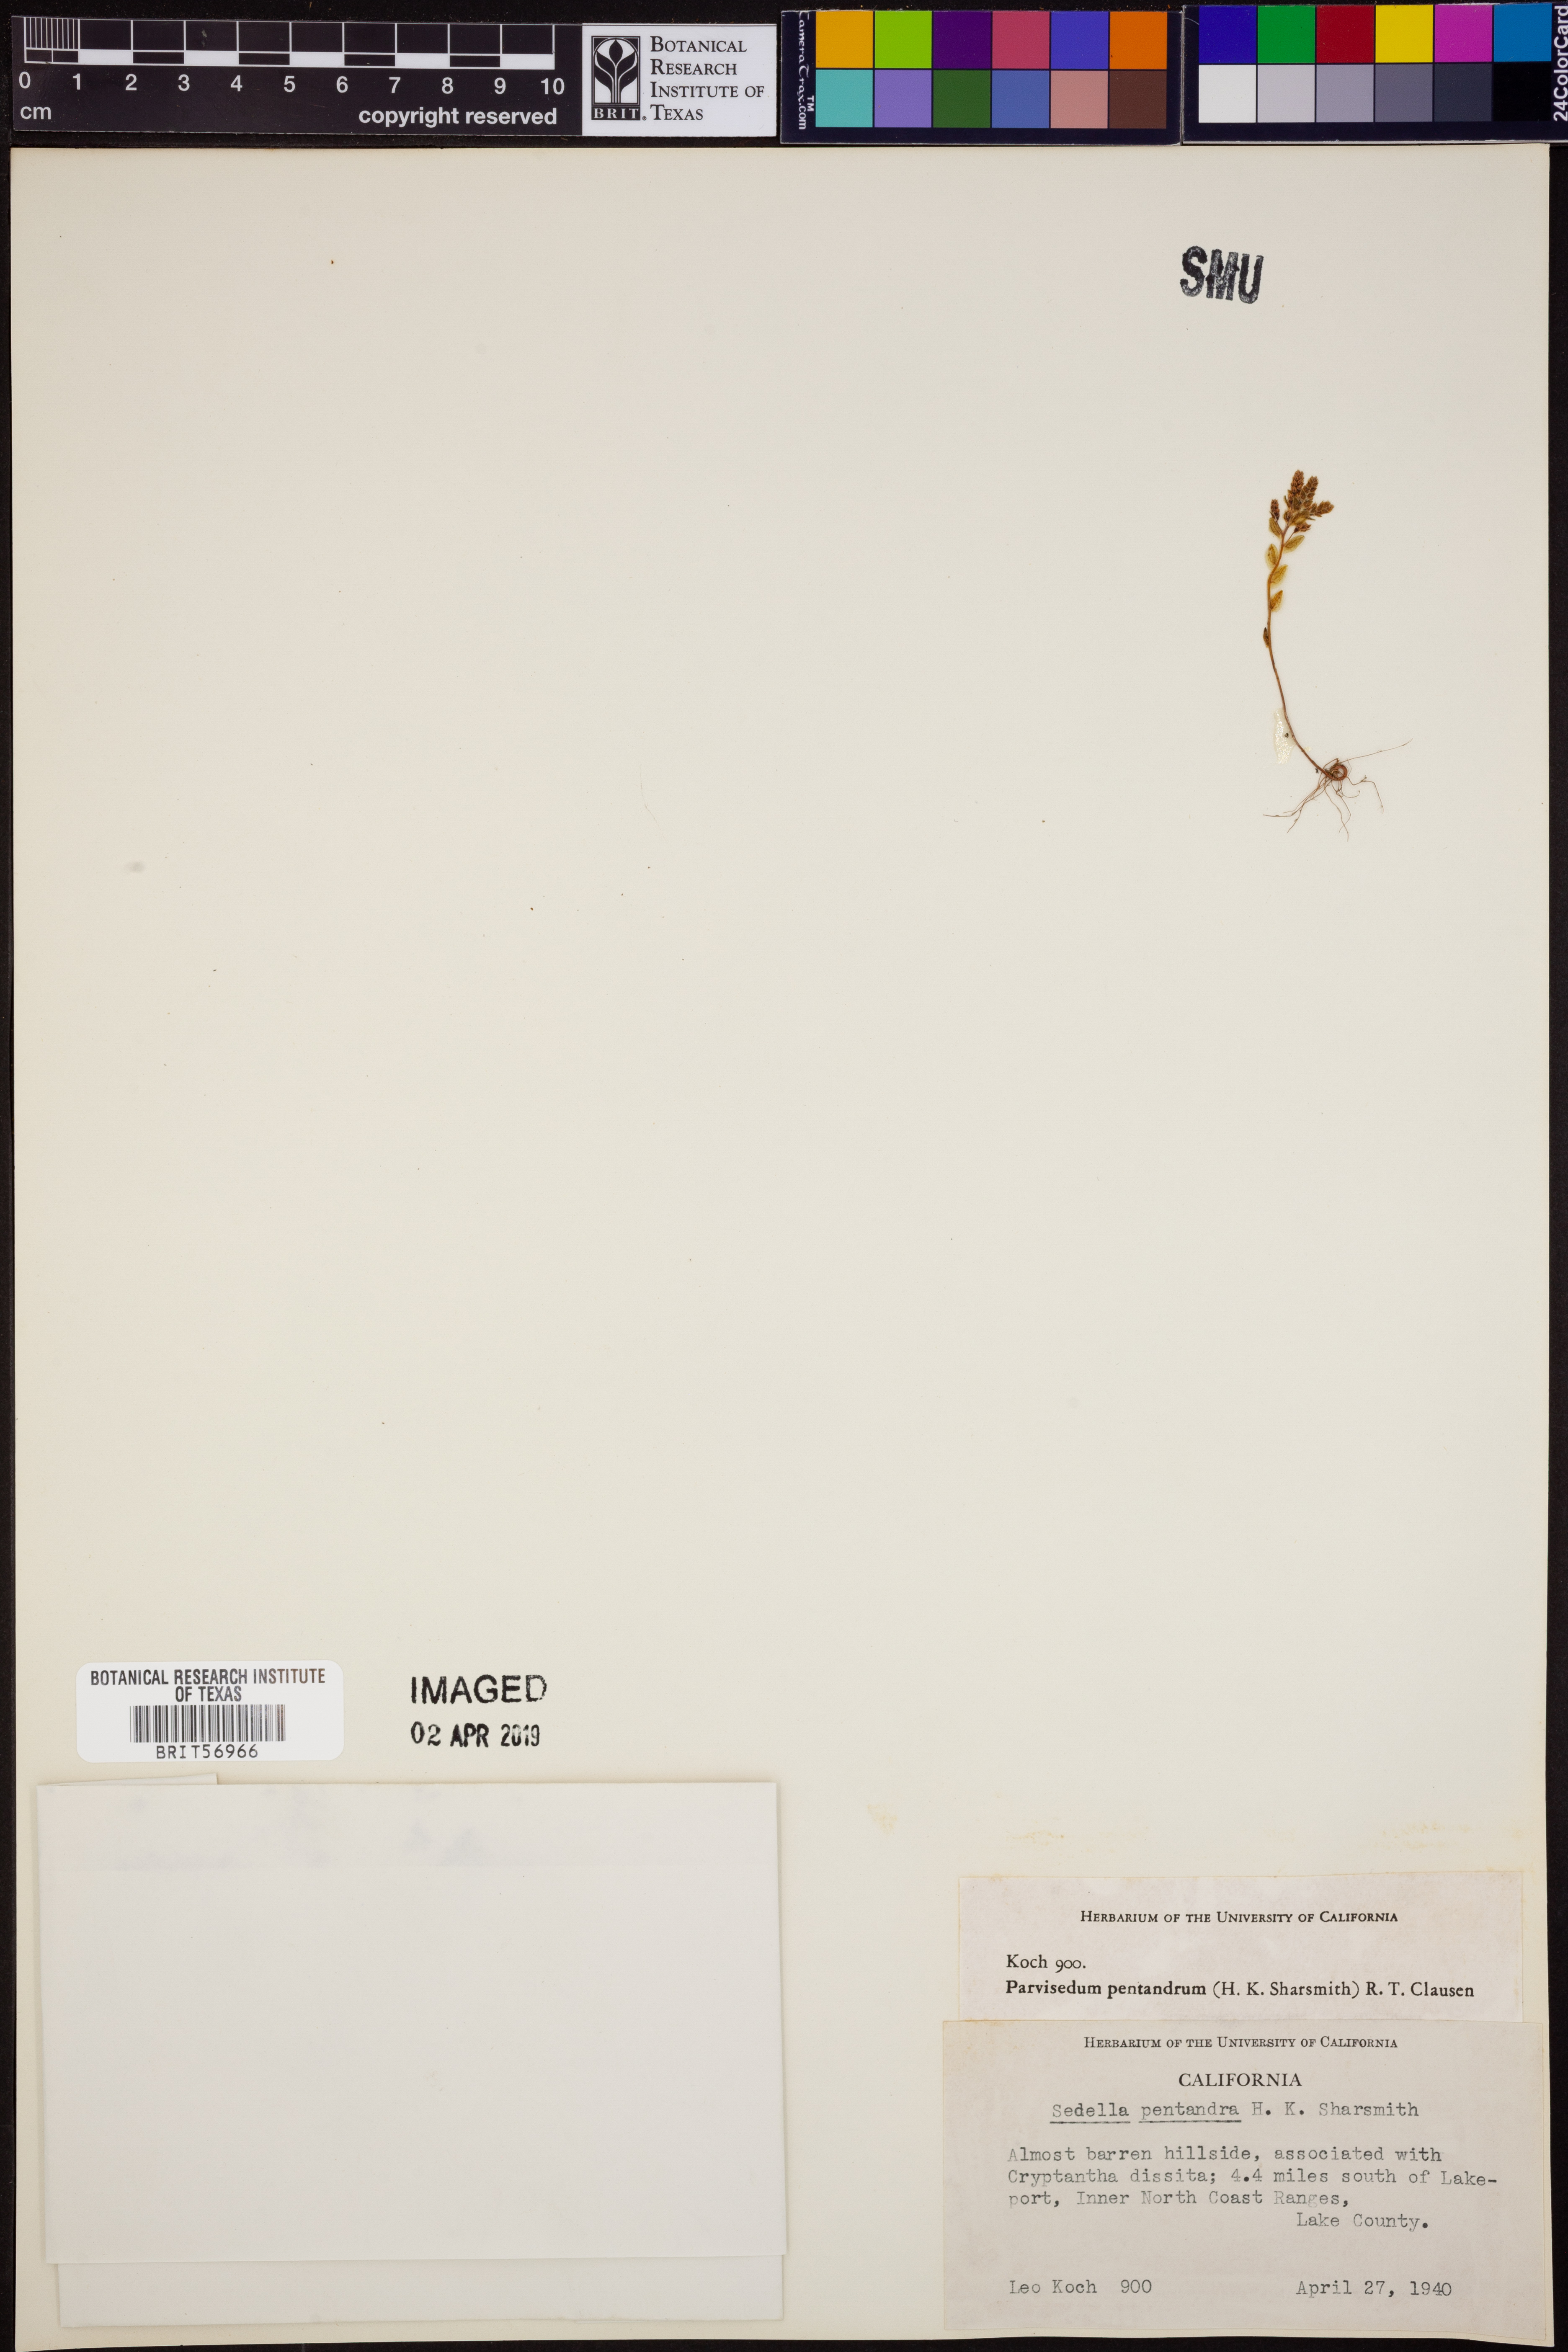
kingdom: Plantae
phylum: Tracheophyta
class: Magnoliopsida
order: Saxifragales
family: Crassulaceae
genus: Sedella
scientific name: Sedella pentandra
